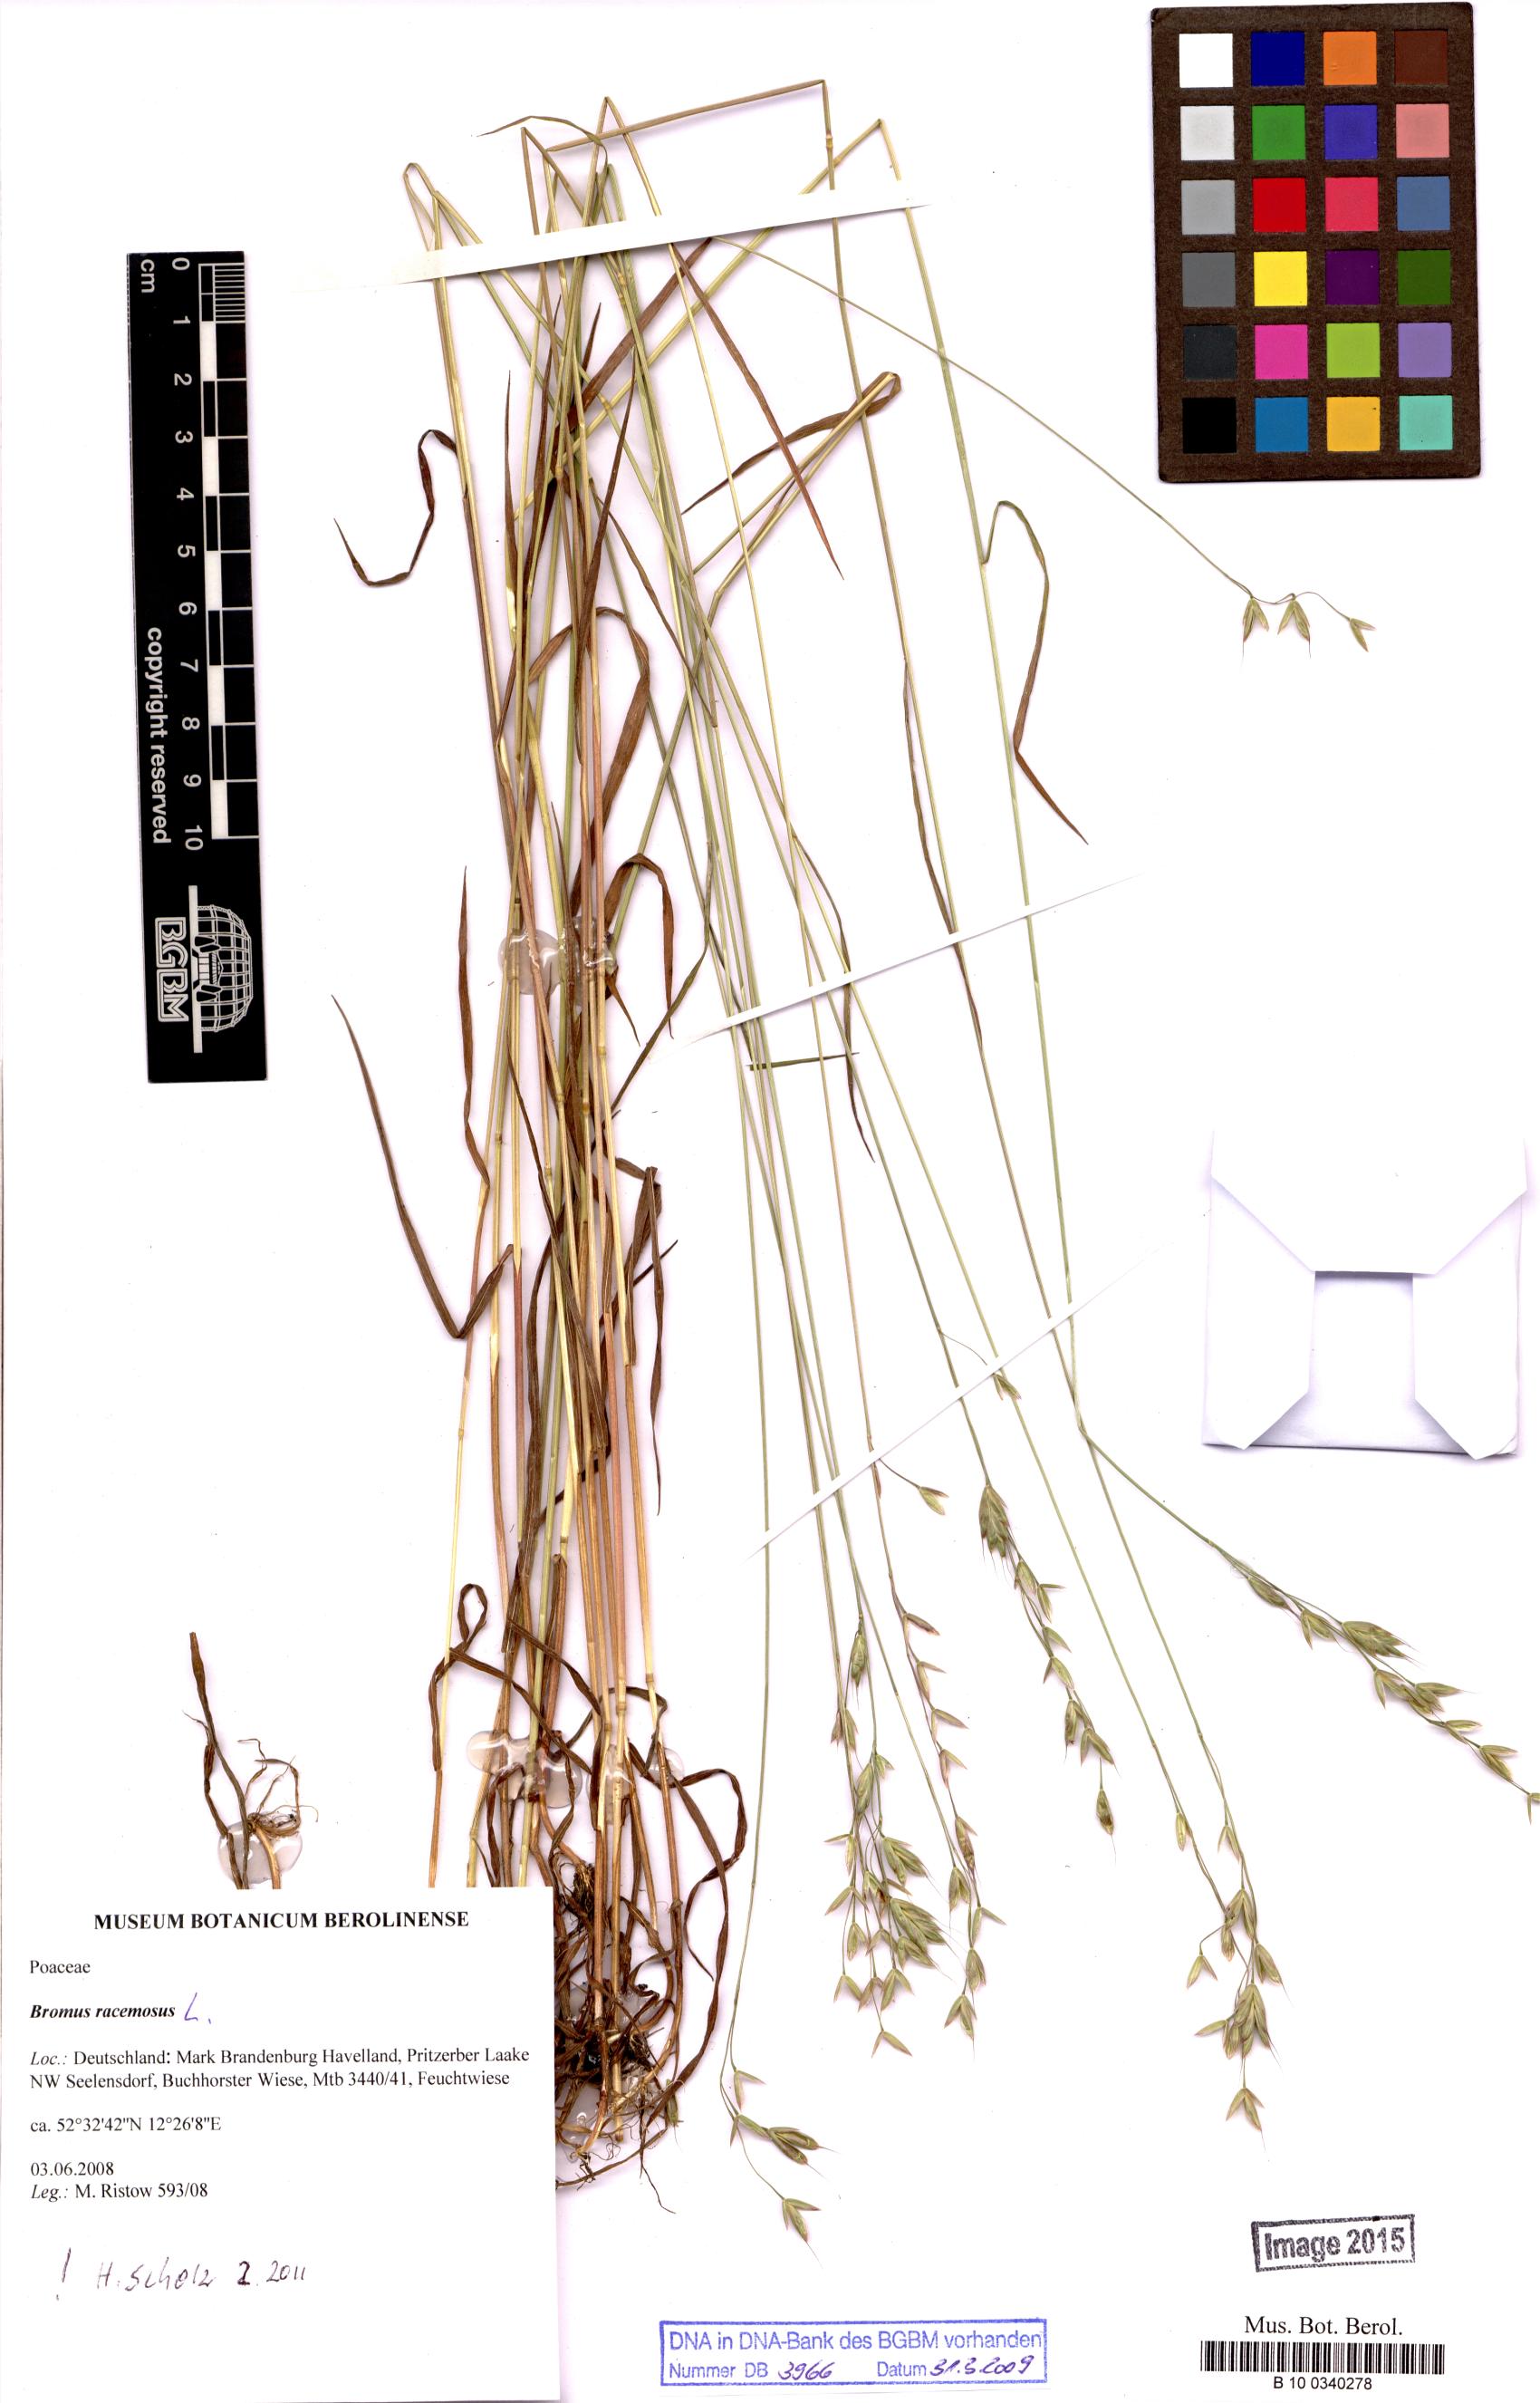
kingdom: Plantae
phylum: Tracheophyta
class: Liliopsida
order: Poales
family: Poaceae
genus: Bromus
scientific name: Bromus racemosus
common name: Bald brome
